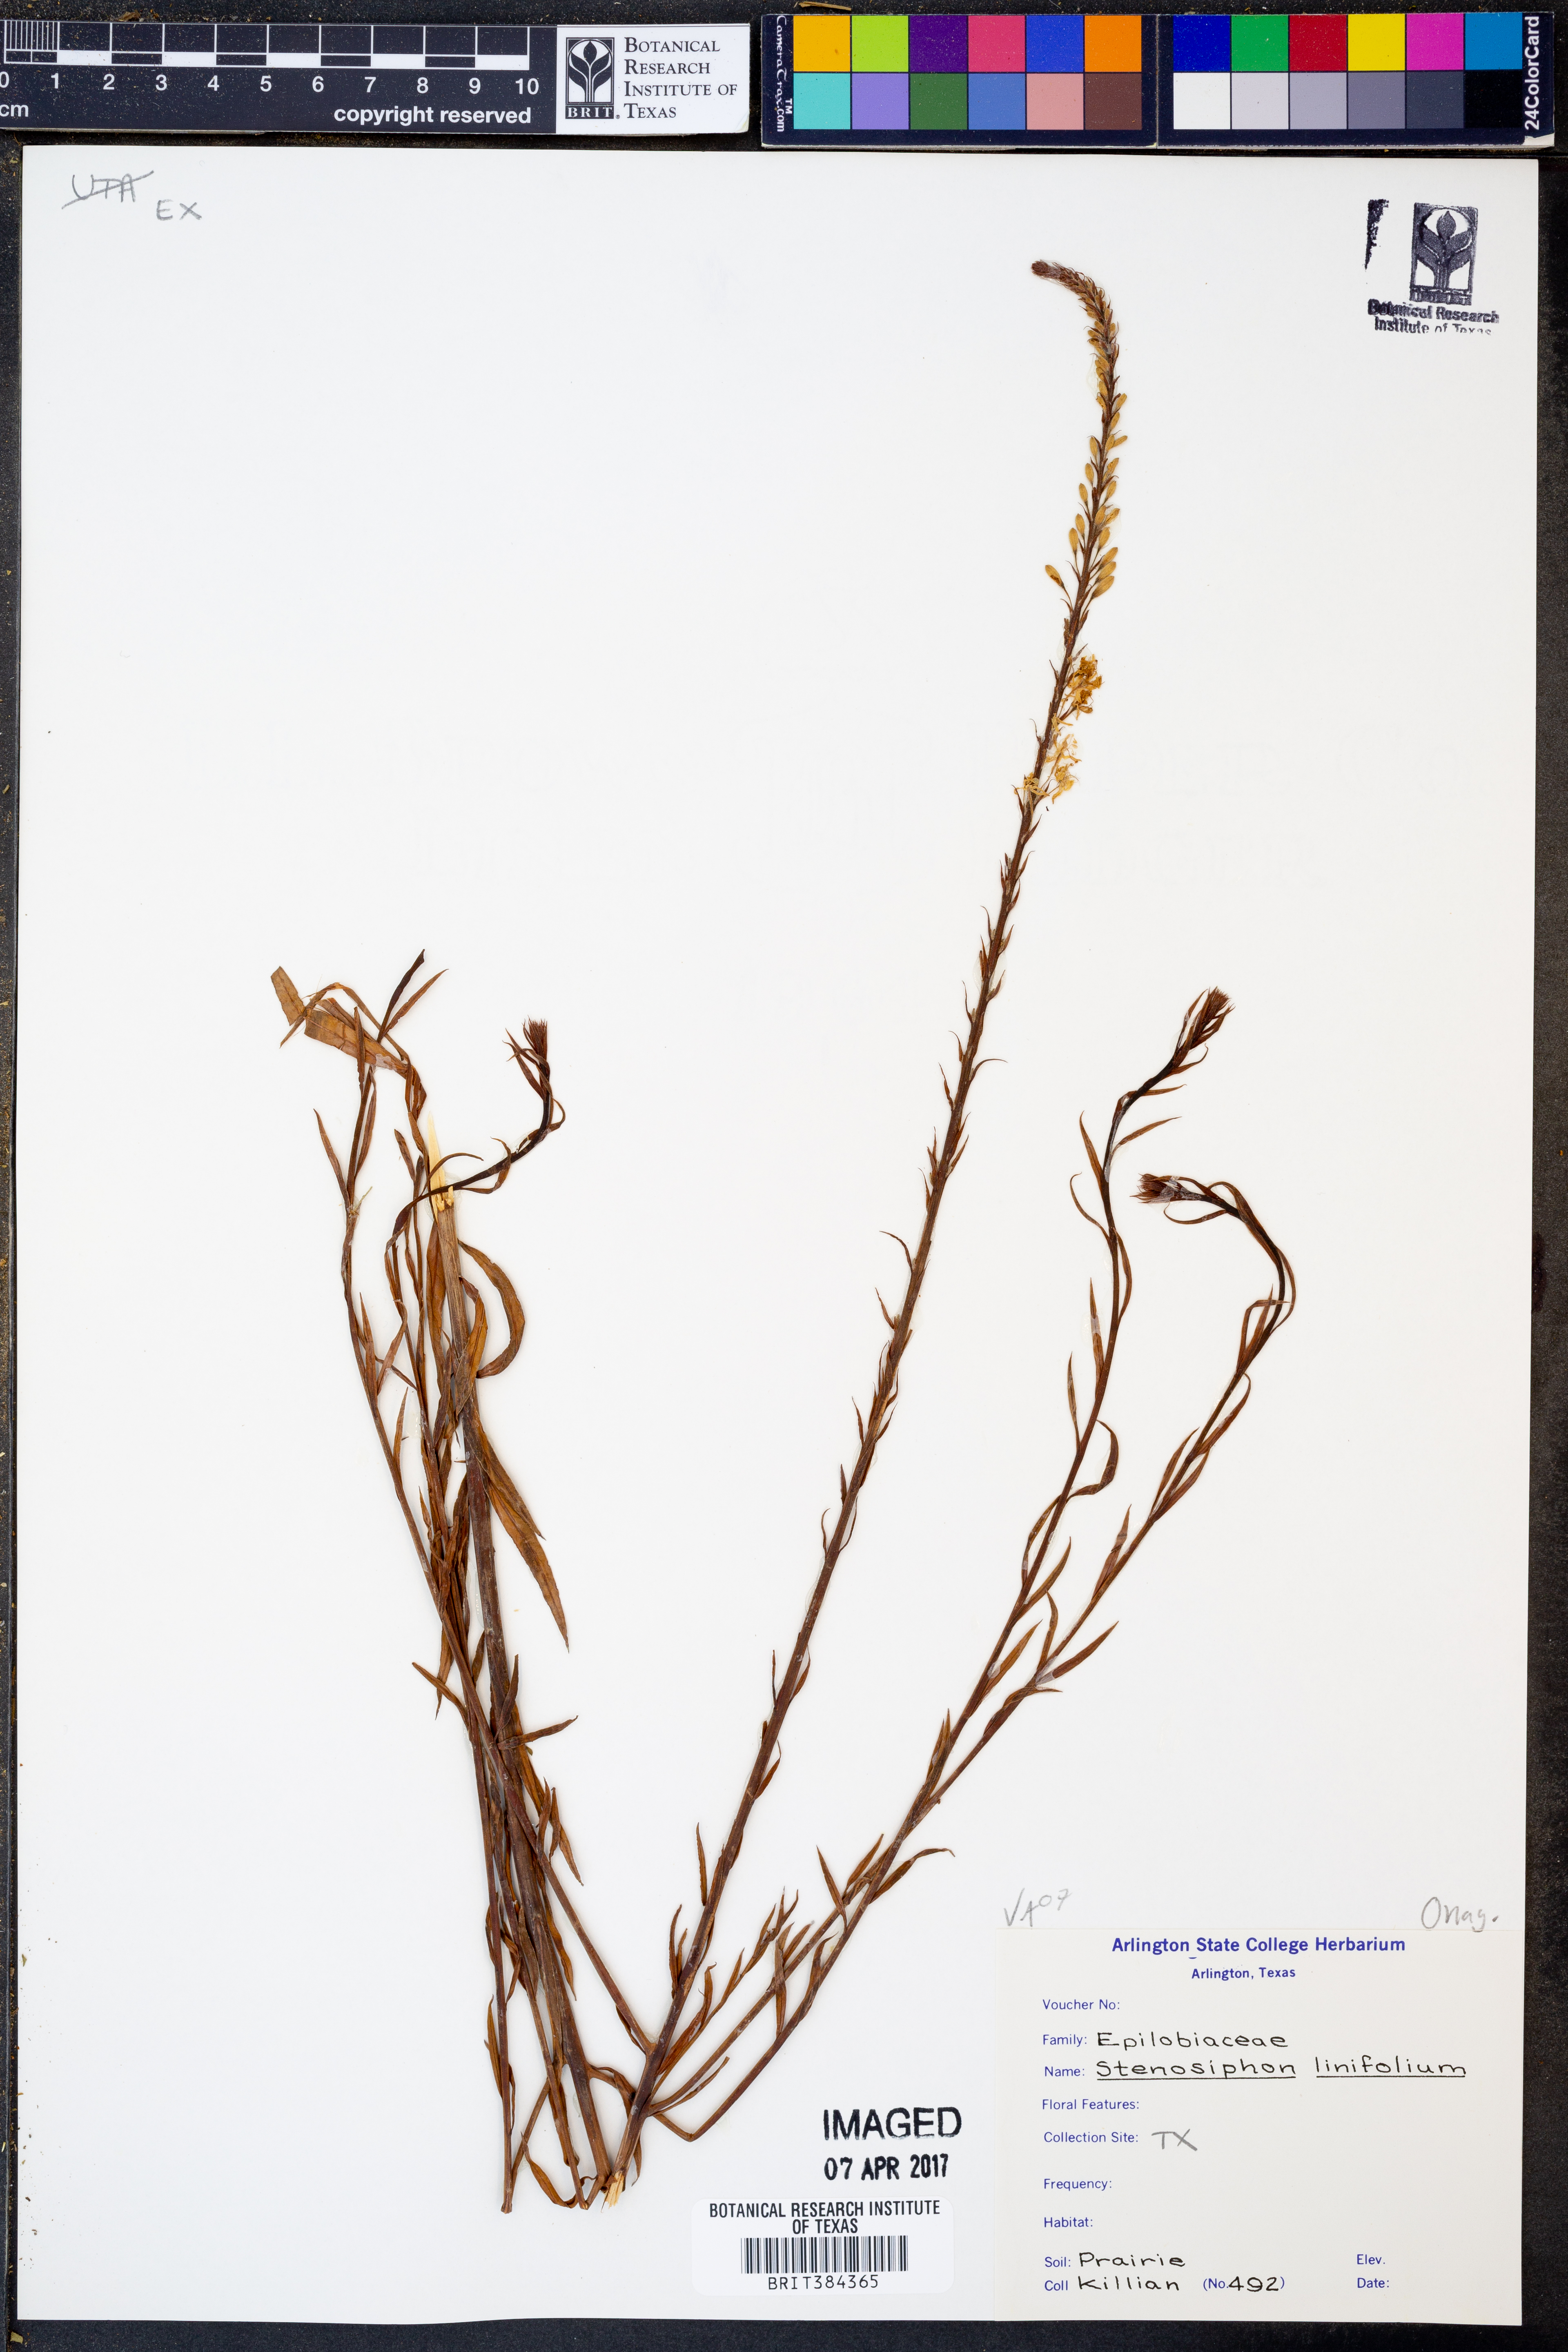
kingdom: Plantae
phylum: Tracheophyta
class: Magnoliopsida
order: Myrtales
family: Onagraceae
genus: Oenothera
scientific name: Oenothera glaucifolia
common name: False gaura
